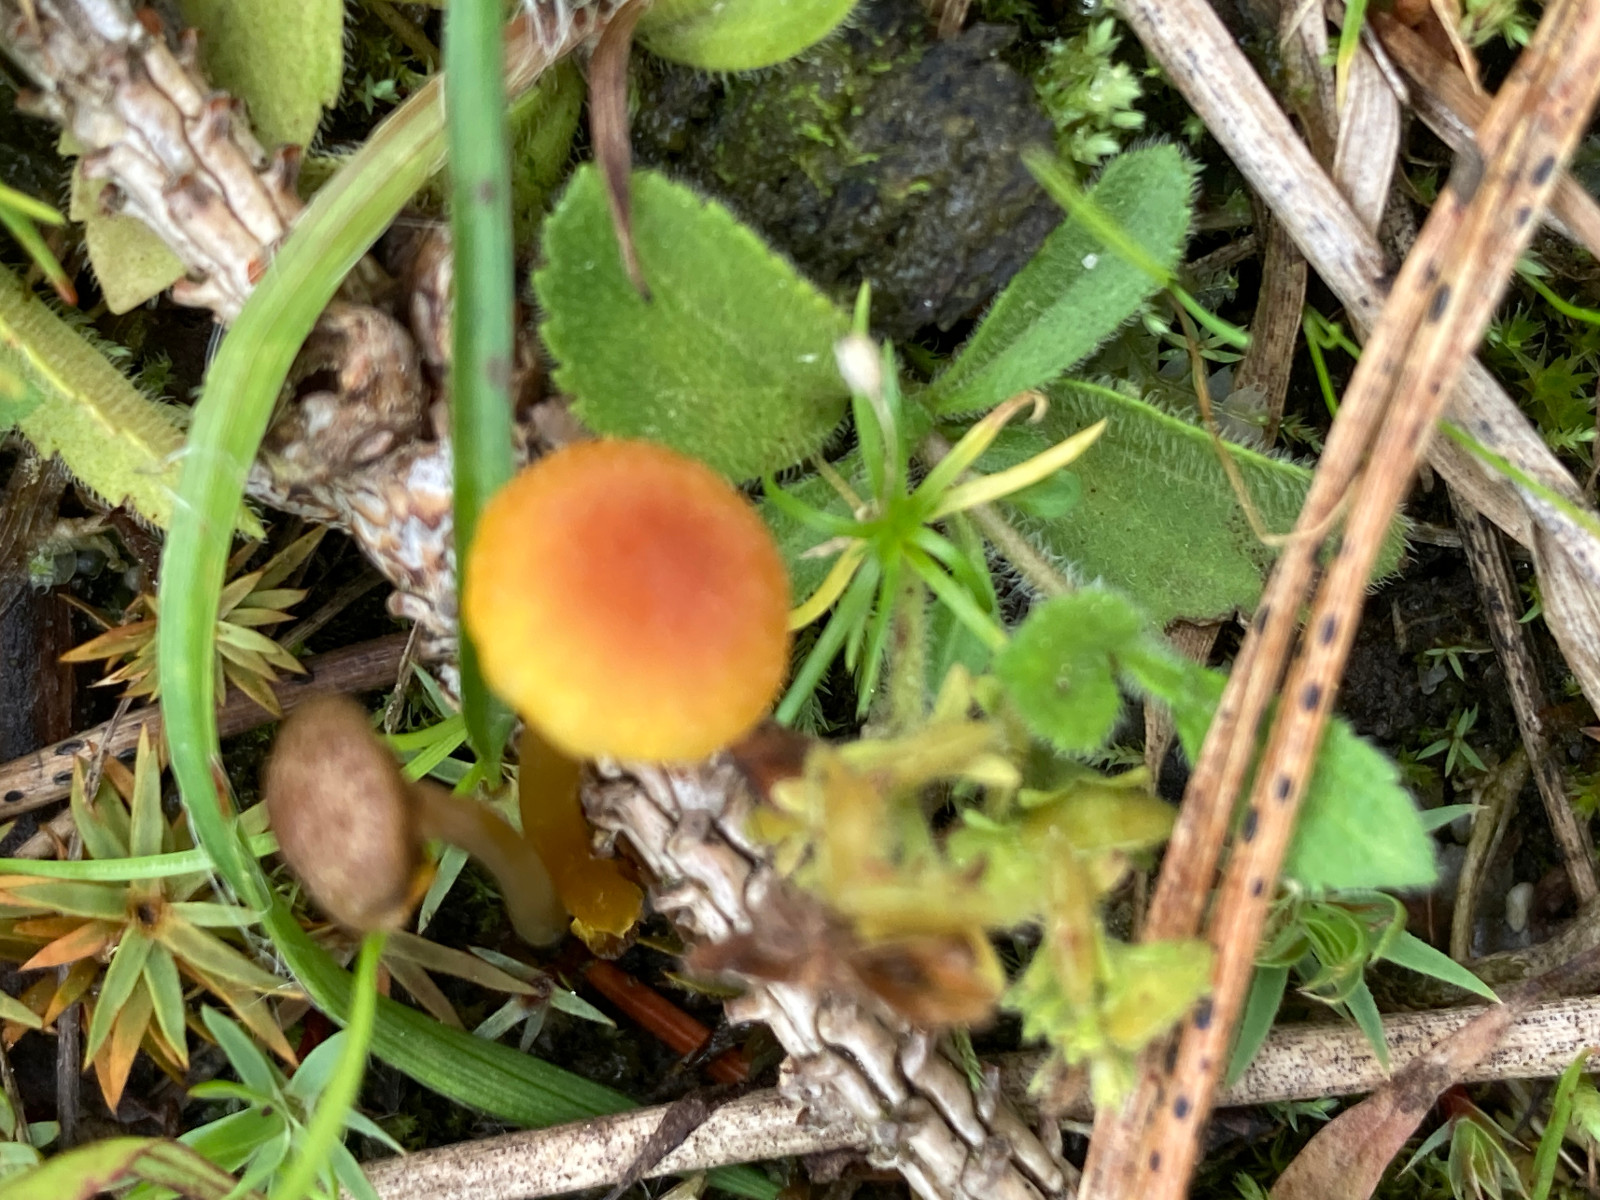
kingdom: Fungi
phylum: Basidiomycota
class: Agaricomycetes
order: Agaricales
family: Hygrophoraceae
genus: Hygrocybe
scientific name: Hygrocybe insipida
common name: liden vokshat
